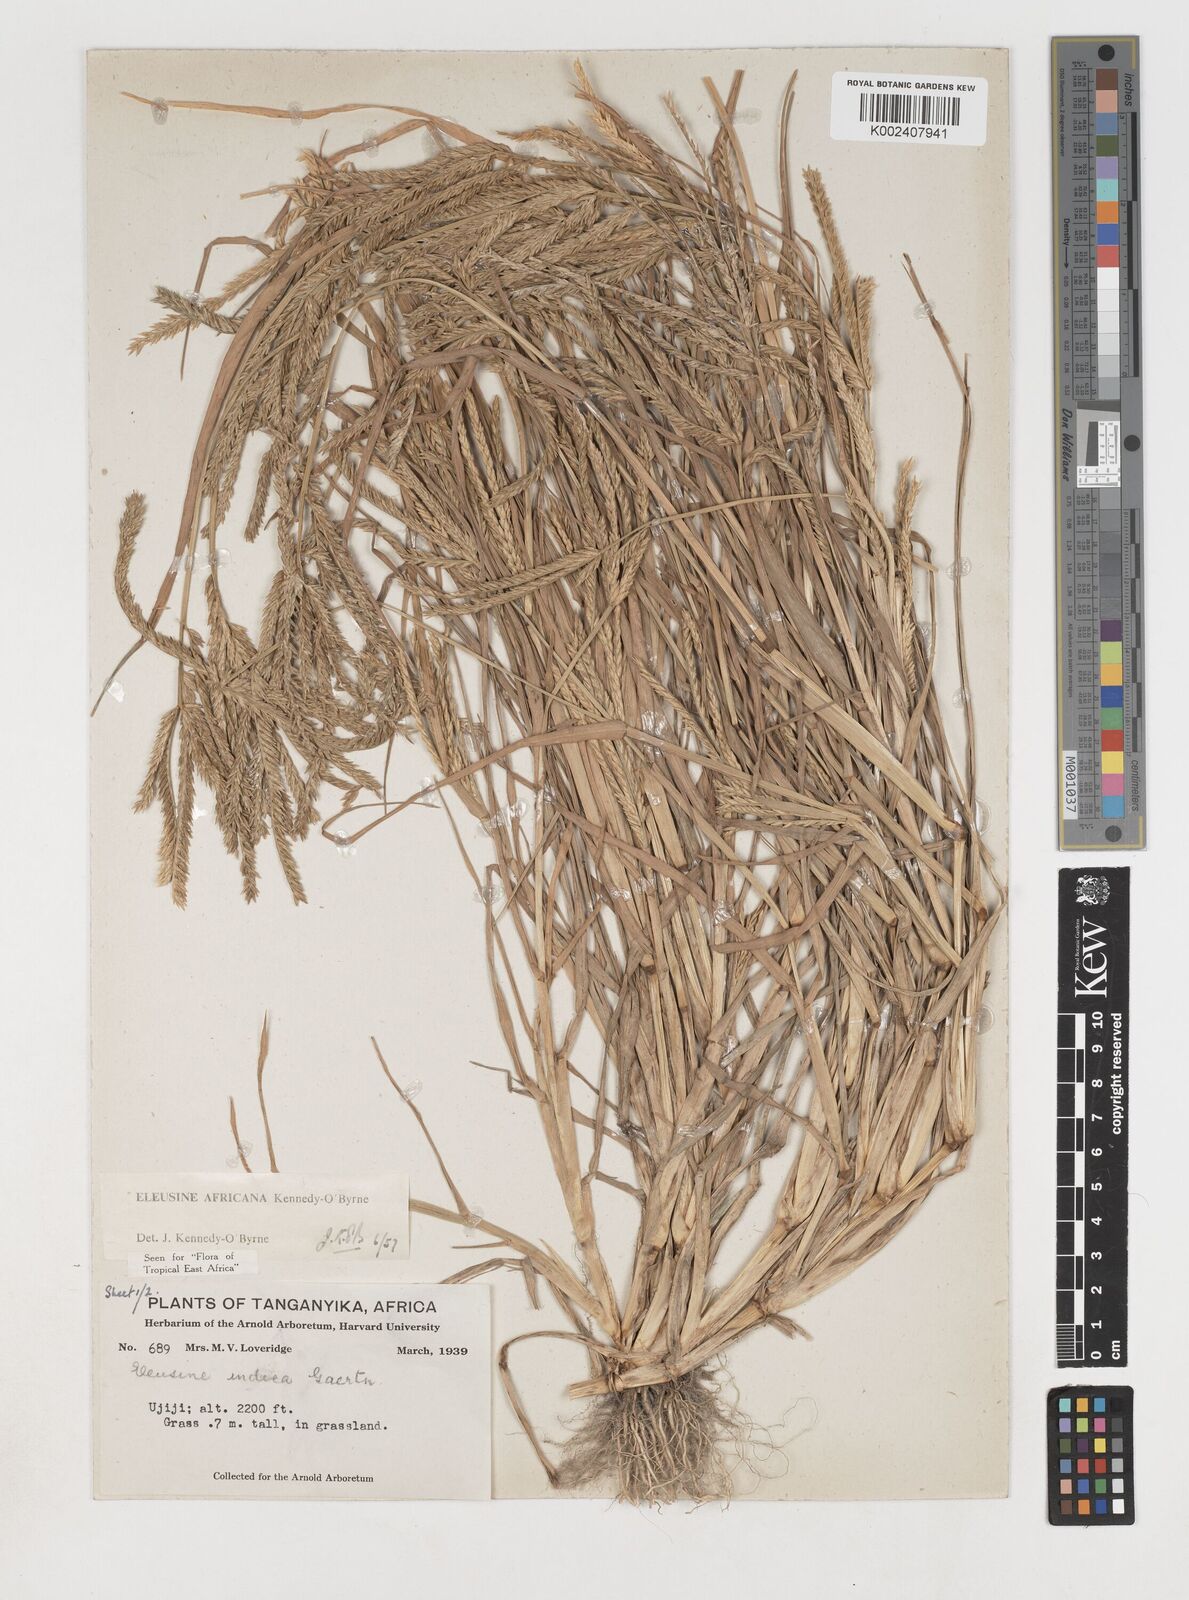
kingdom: Plantae
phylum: Tracheophyta
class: Liliopsida
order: Poales
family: Poaceae
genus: Eleusine
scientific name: Eleusine africana
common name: Wild african finger millet
